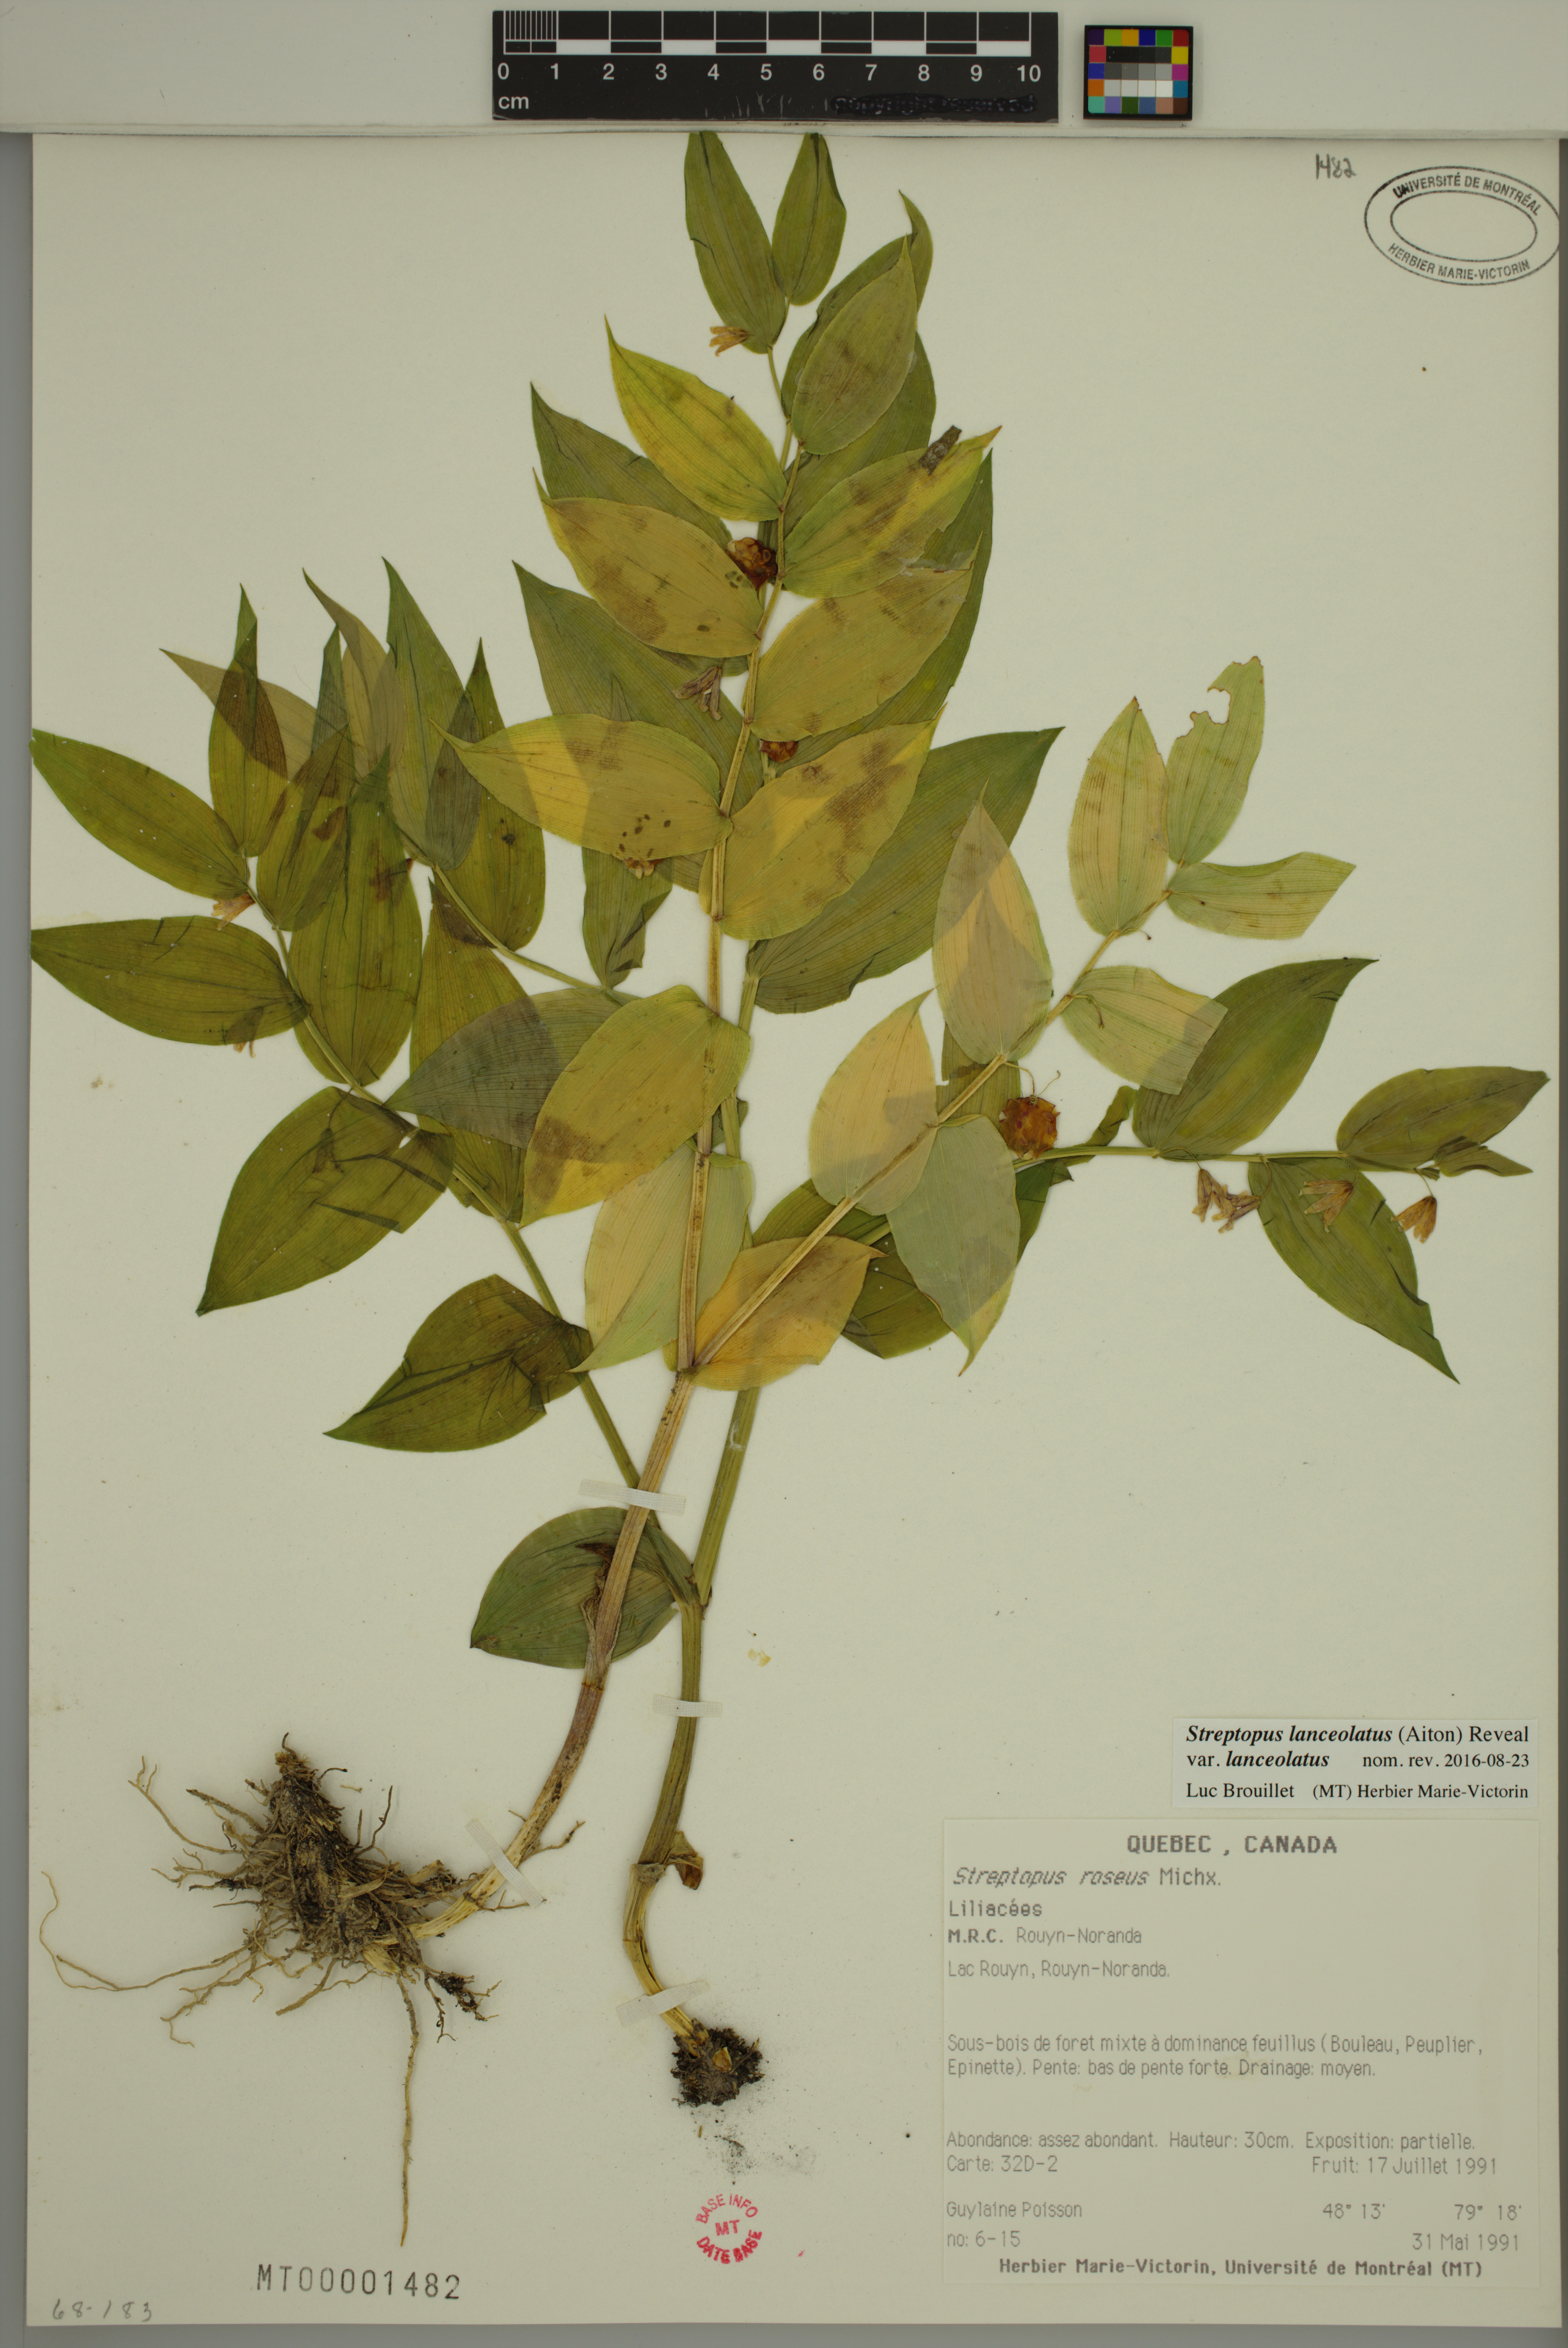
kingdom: Plantae
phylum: Tracheophyta
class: Liliopsida
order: Liliales
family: Liliaceae
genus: Streptopus
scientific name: Streptopus lanceolatus
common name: Rose mandarin
